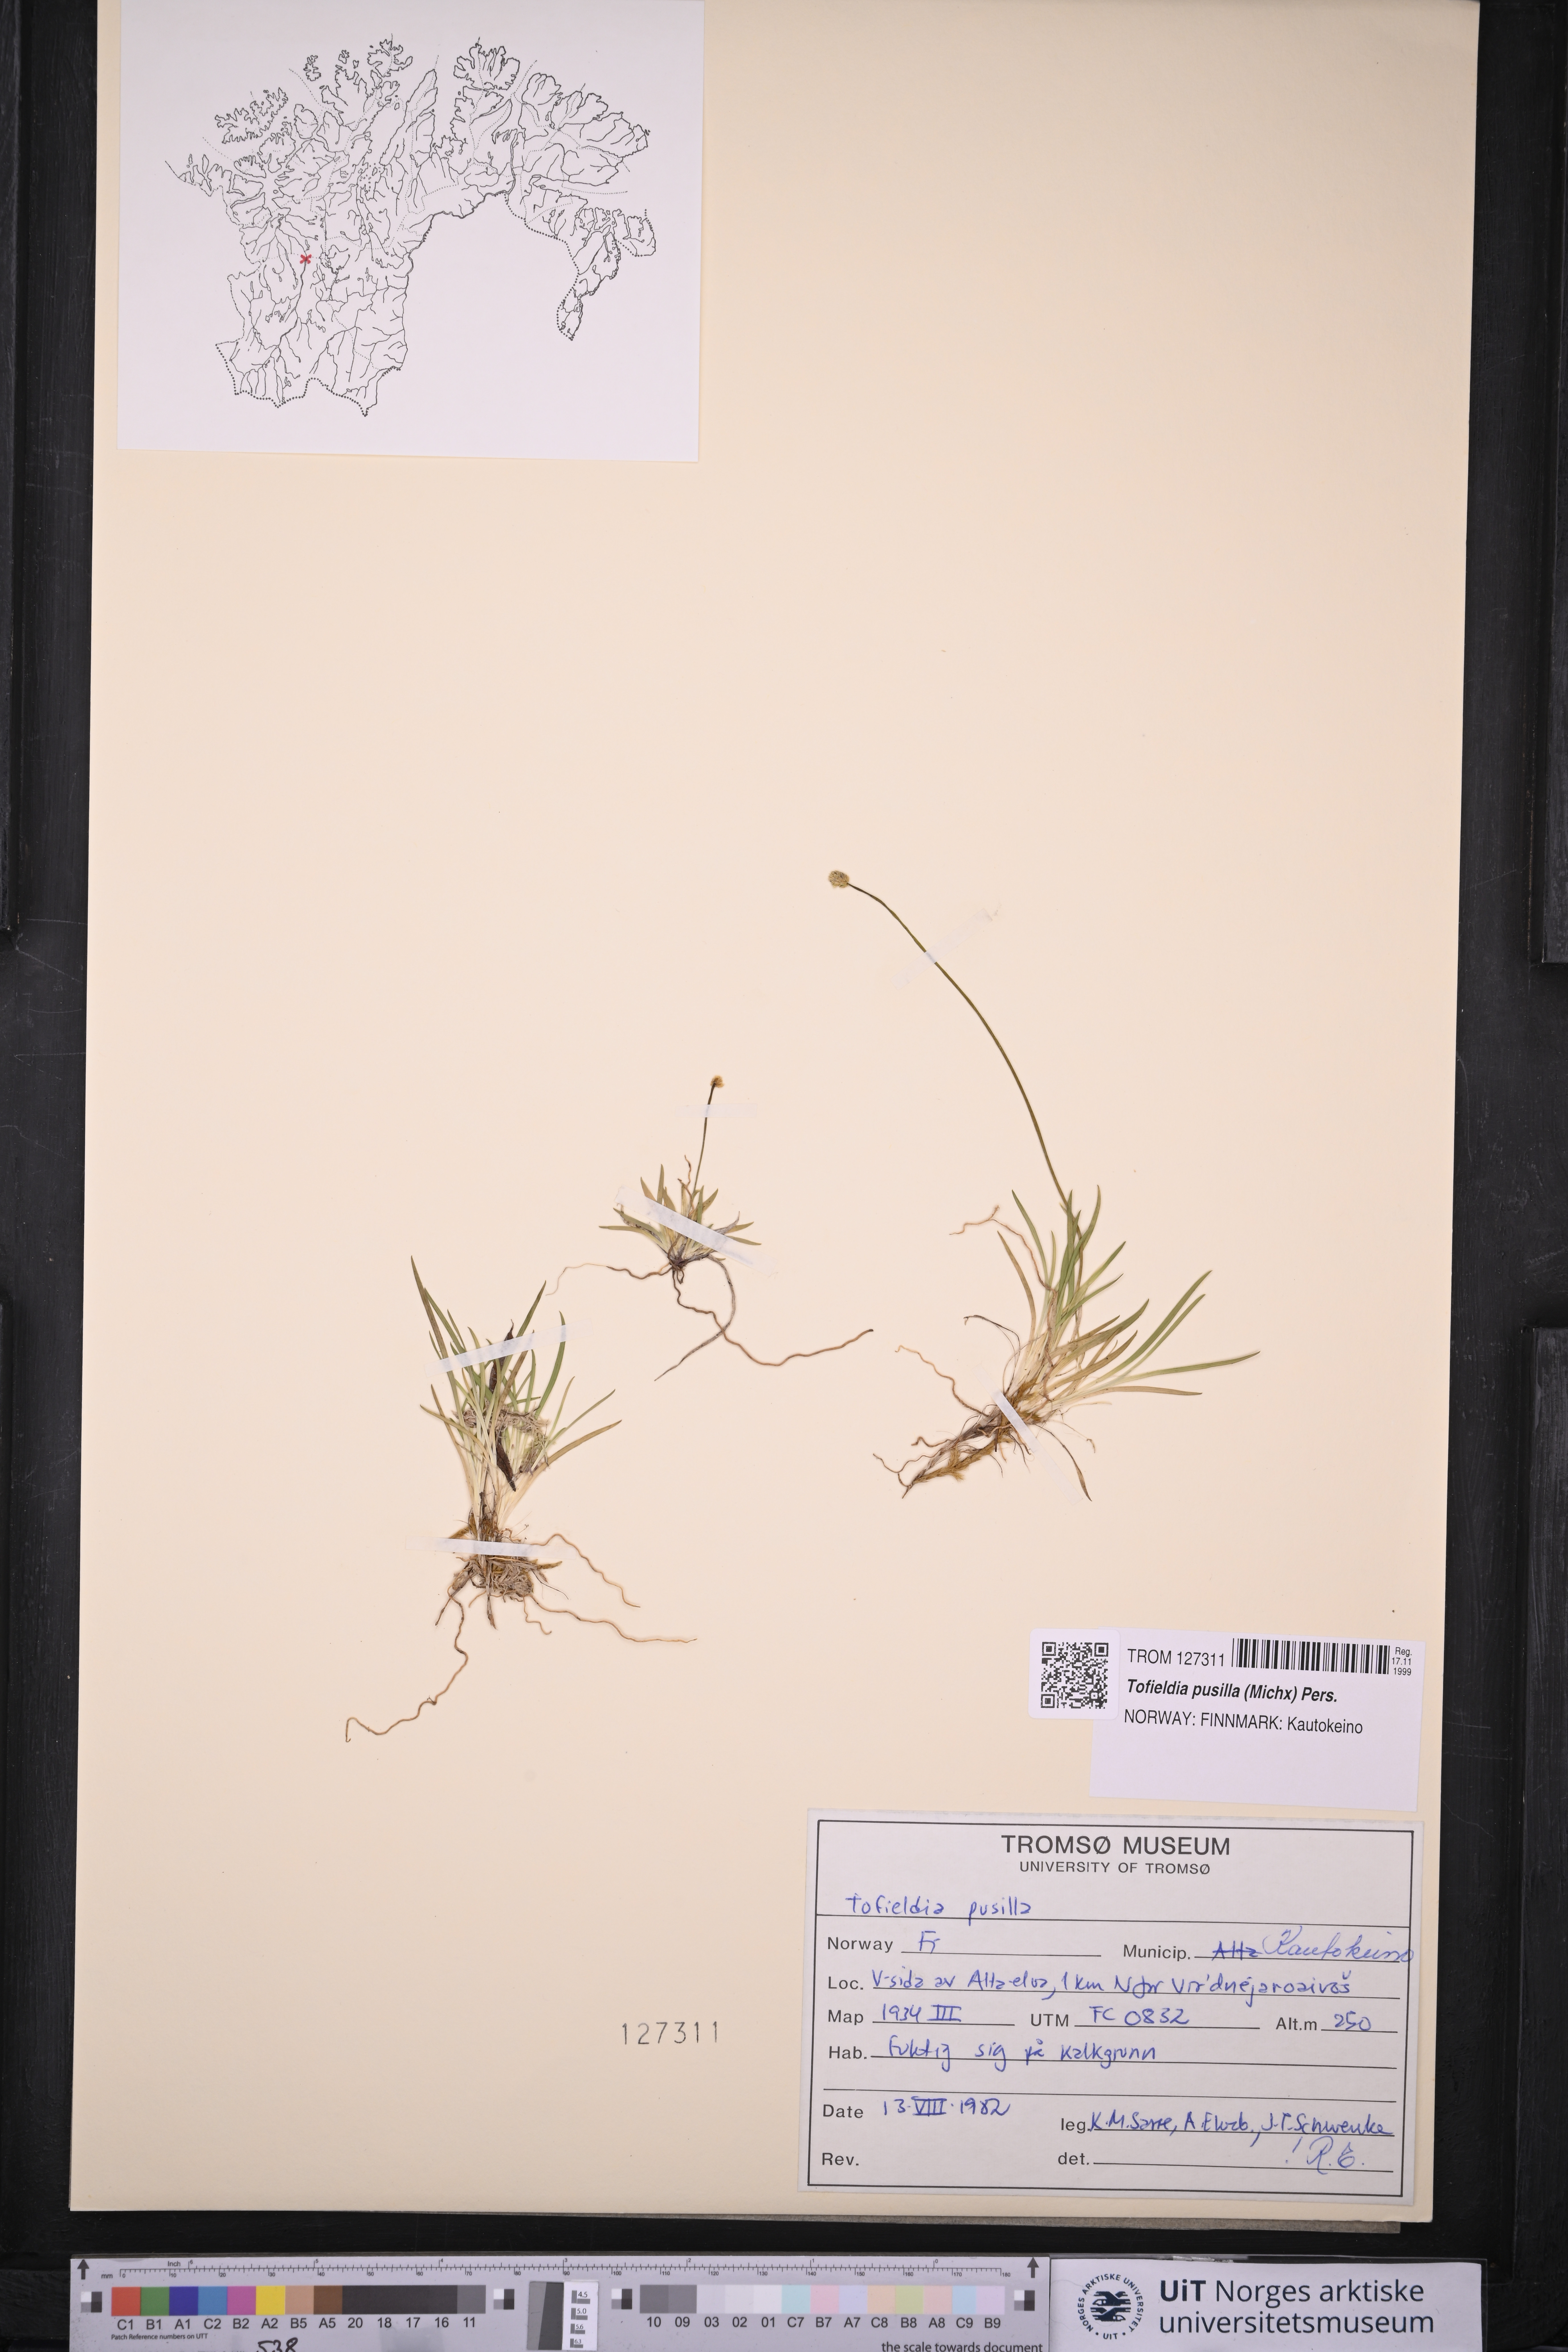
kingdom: Plantae
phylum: Tracheophyta
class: Liliopsida
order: Alismatales
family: Tofieldiaceae
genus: Tofieldia
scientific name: Tofieldia pusilla
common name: Scottish false asphodel
